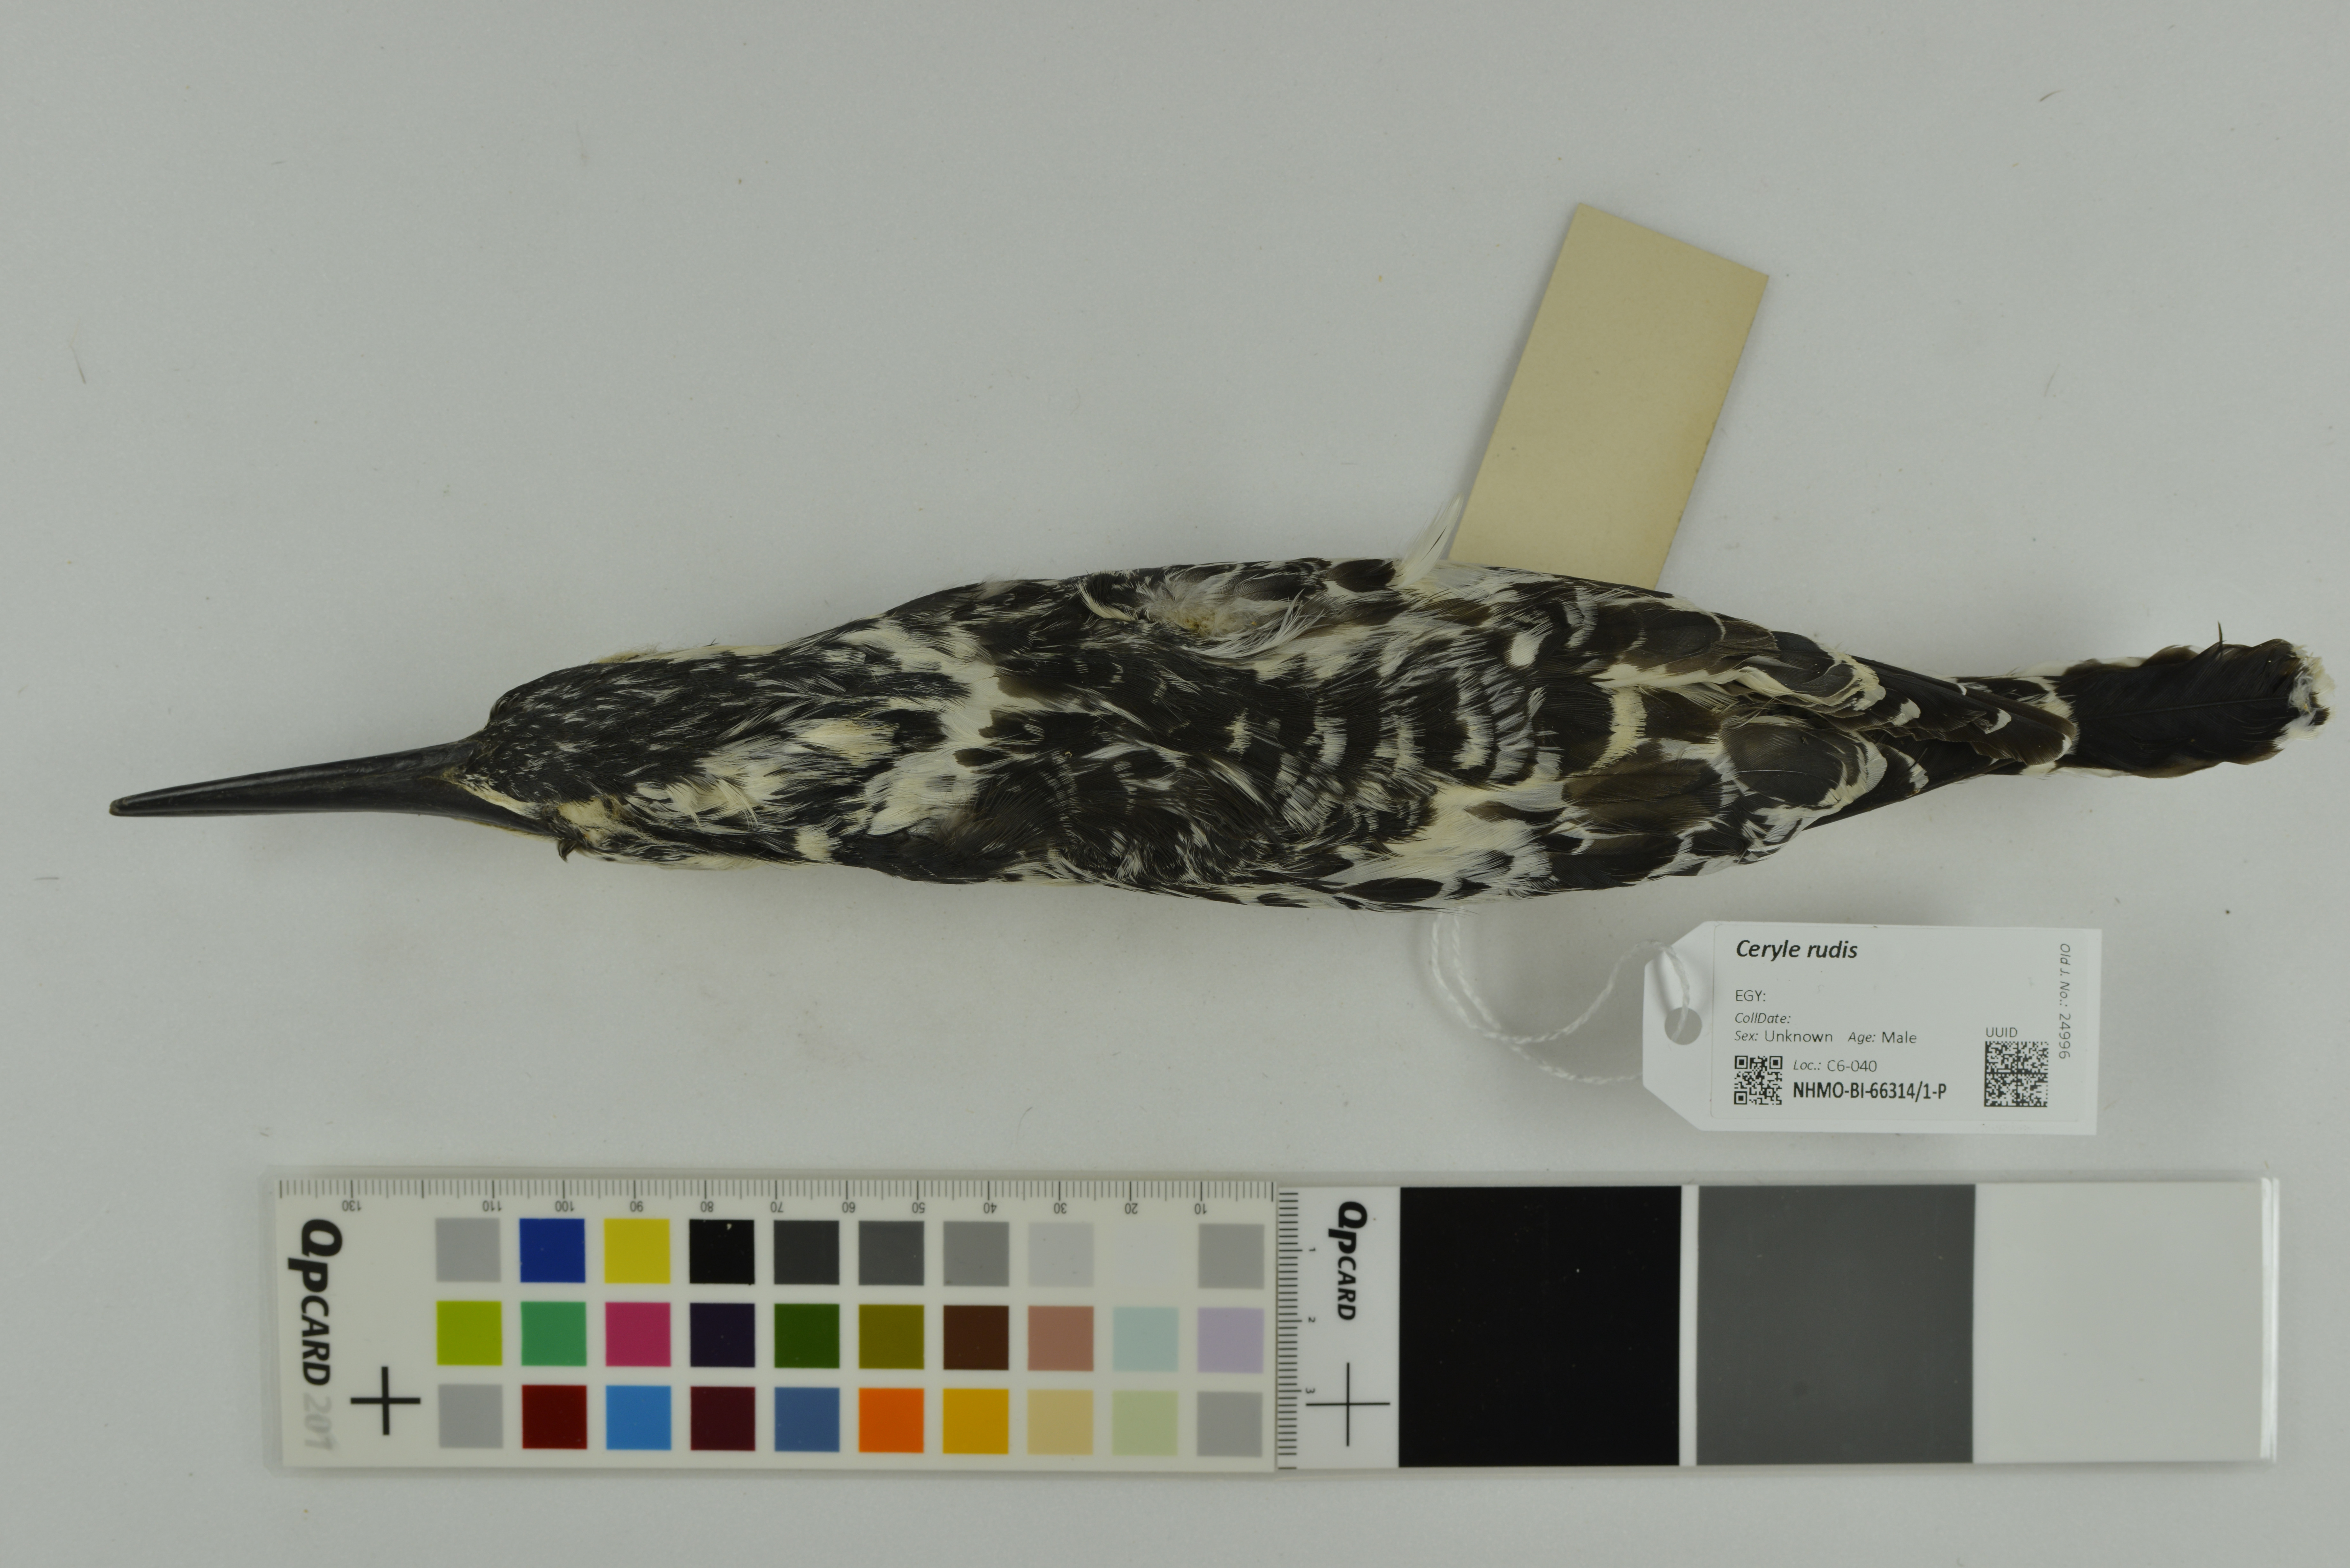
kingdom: Animalia
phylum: Chordata
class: Aves
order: Coraciiformes
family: Alcedinidae
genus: Ceryle
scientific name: Ceryle rudis
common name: Pied kingfisher
